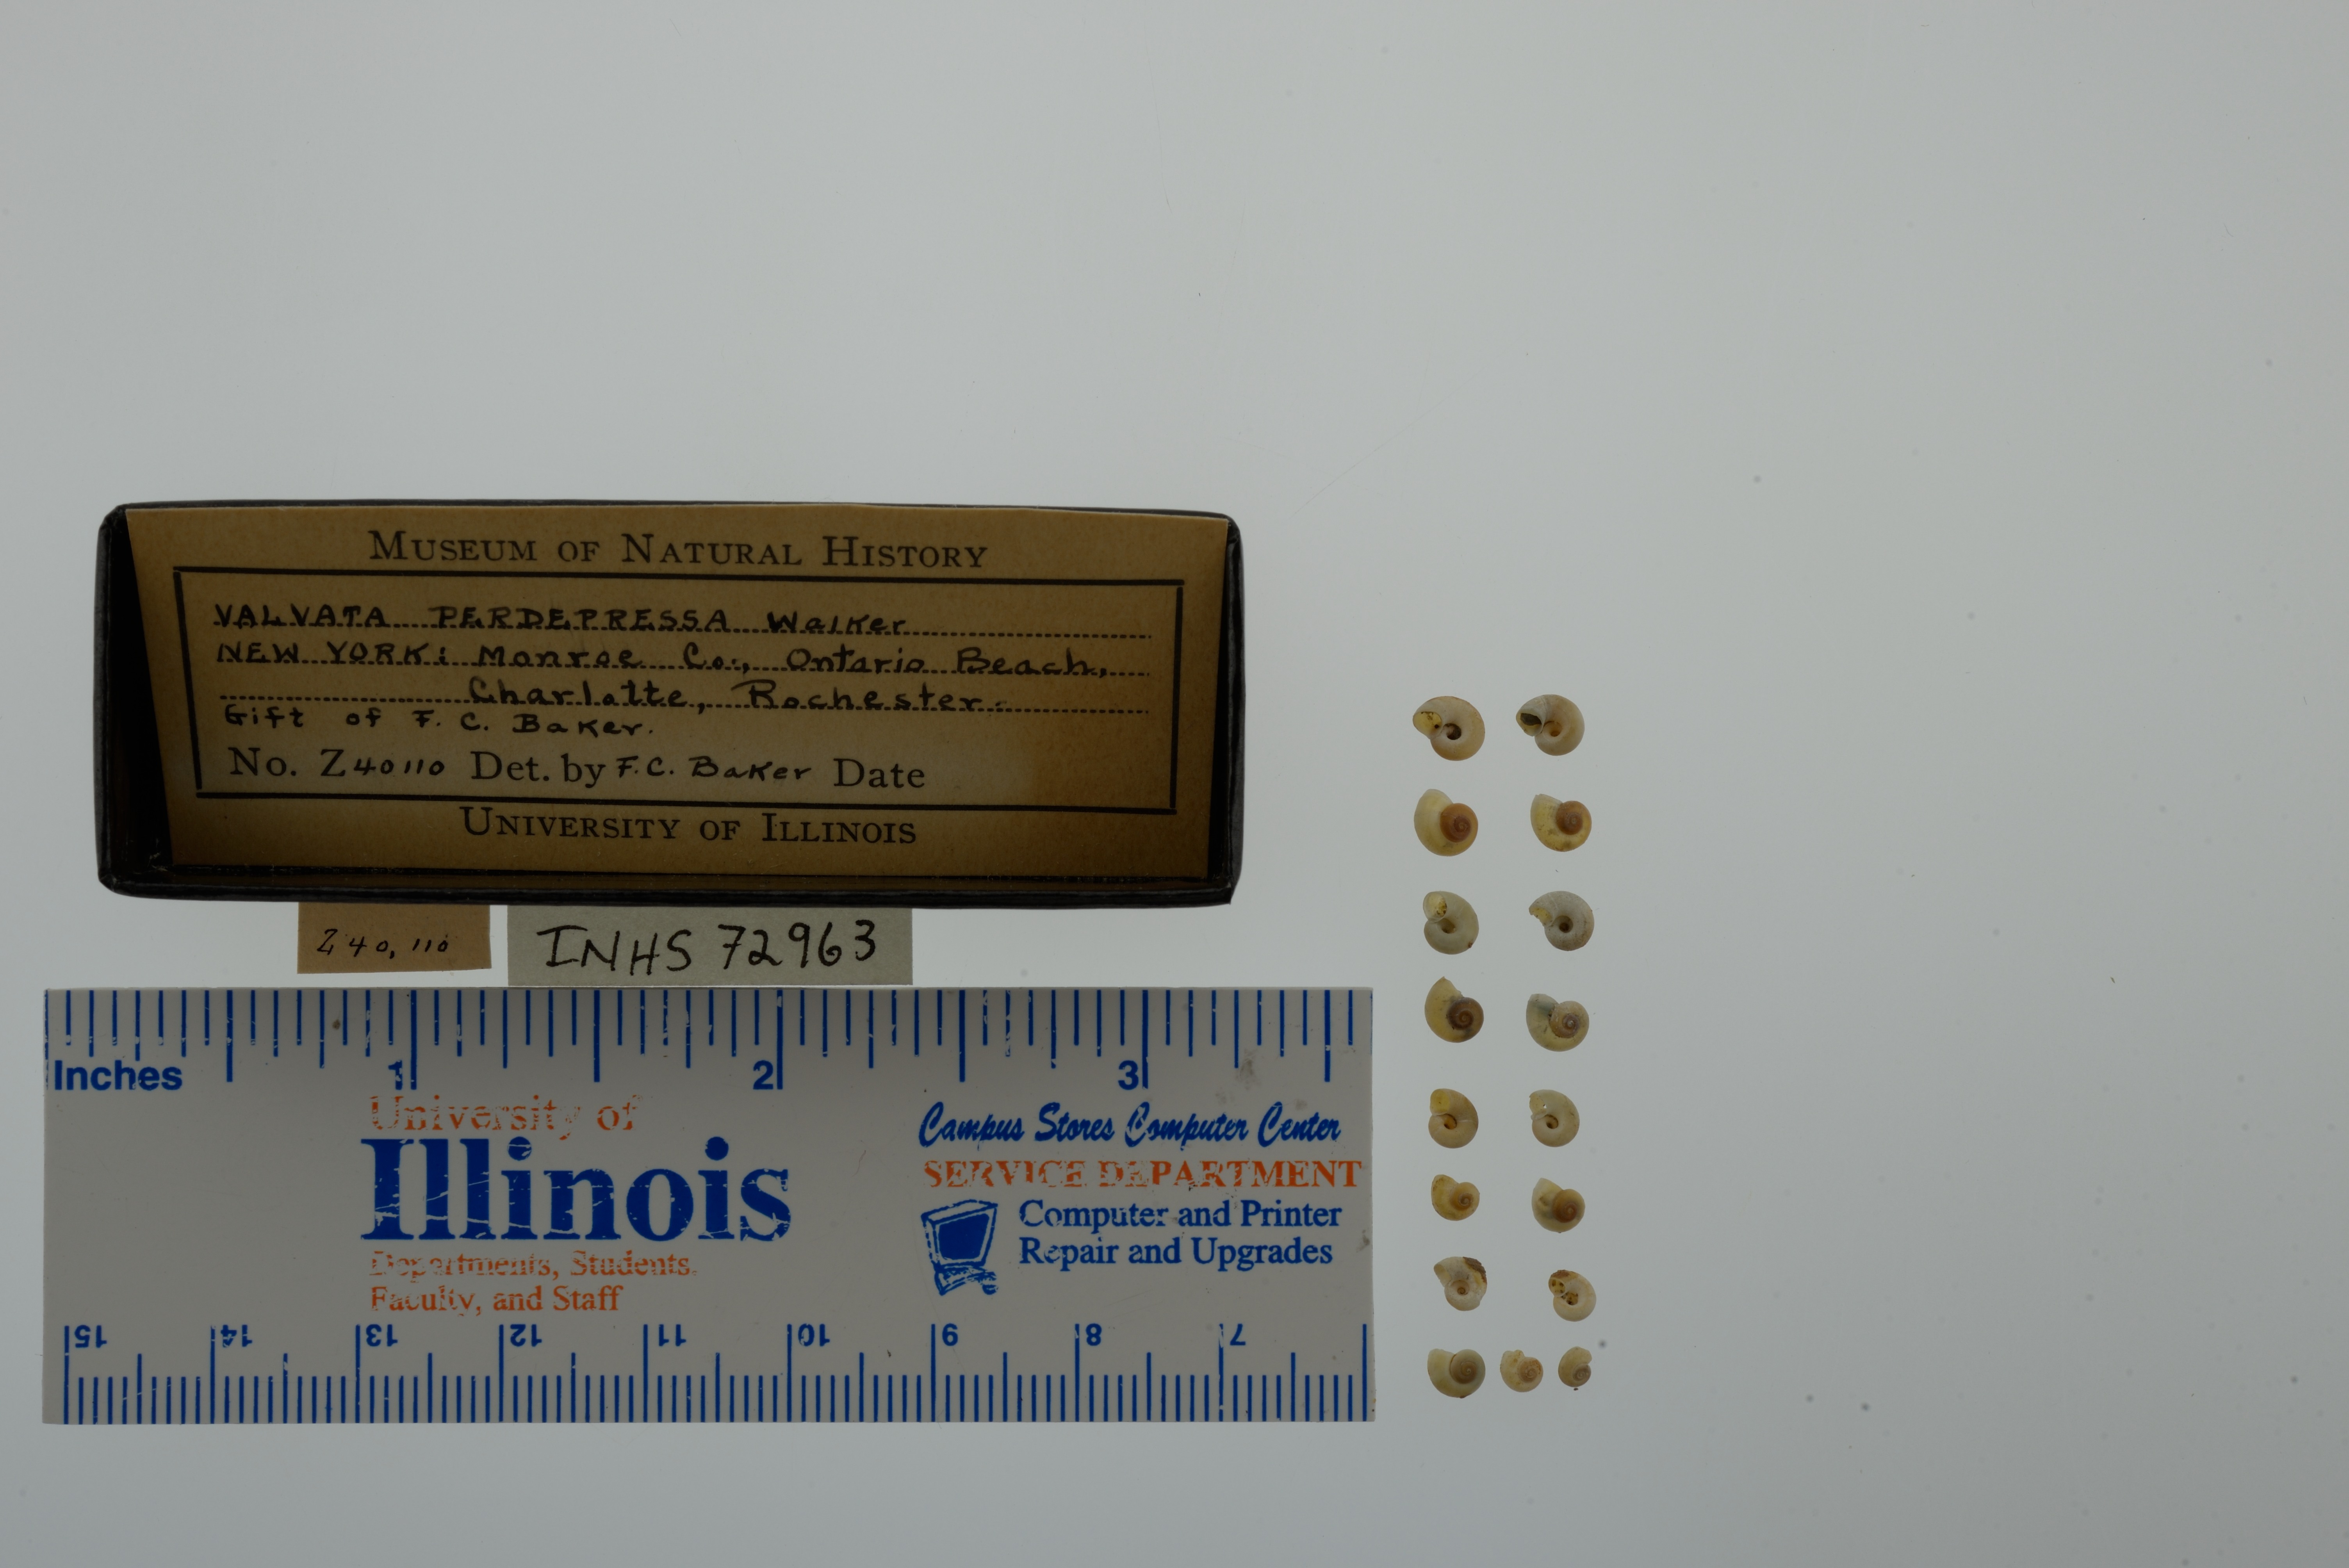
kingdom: Animalia
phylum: Mollusca
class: Gastropoda
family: Valvatidae
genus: Valvata
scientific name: Valvata perdepressa
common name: Purplecap valvata
